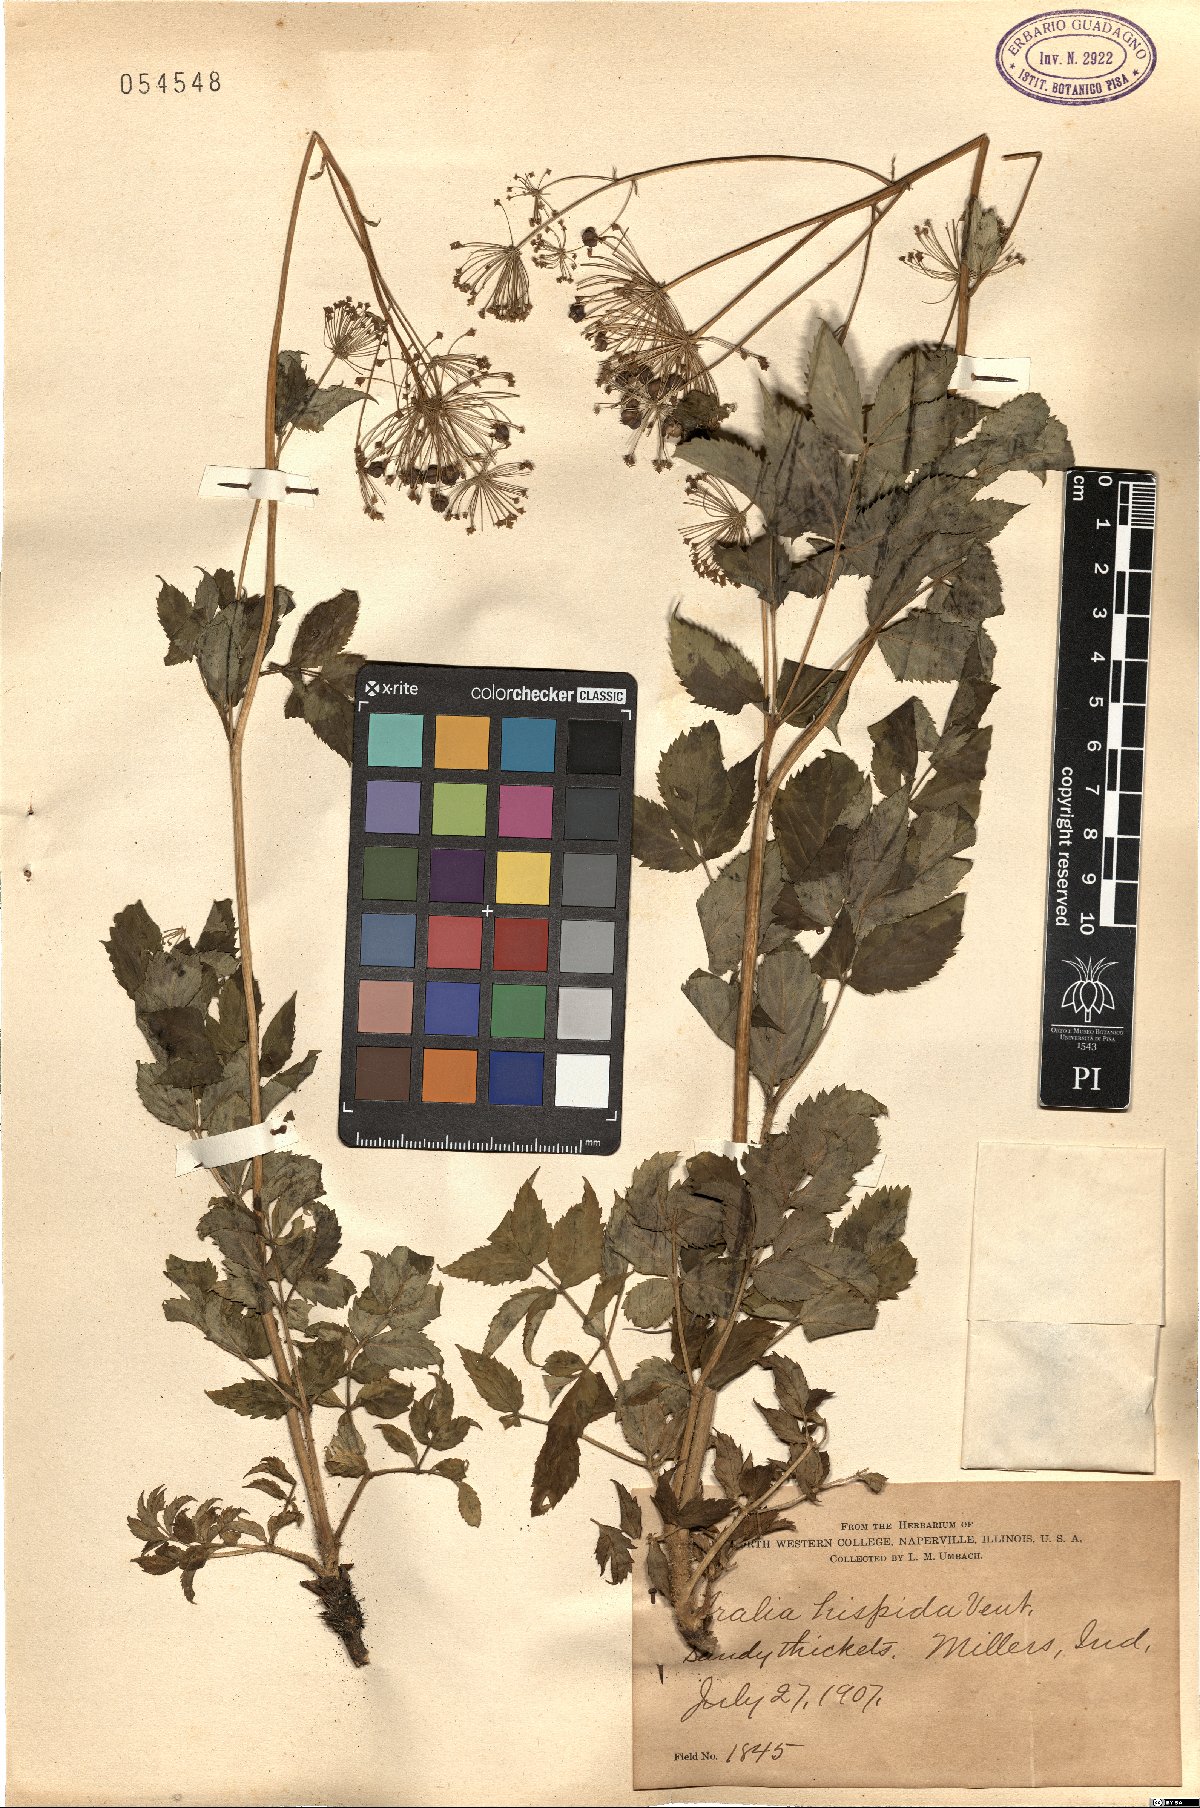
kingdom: Plantae
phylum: Tracheophyta
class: Magnoliopsida
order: Apiales
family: Araliaceae
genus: Aralia
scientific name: Aralia hispida
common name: Bristly sarsaparilla
